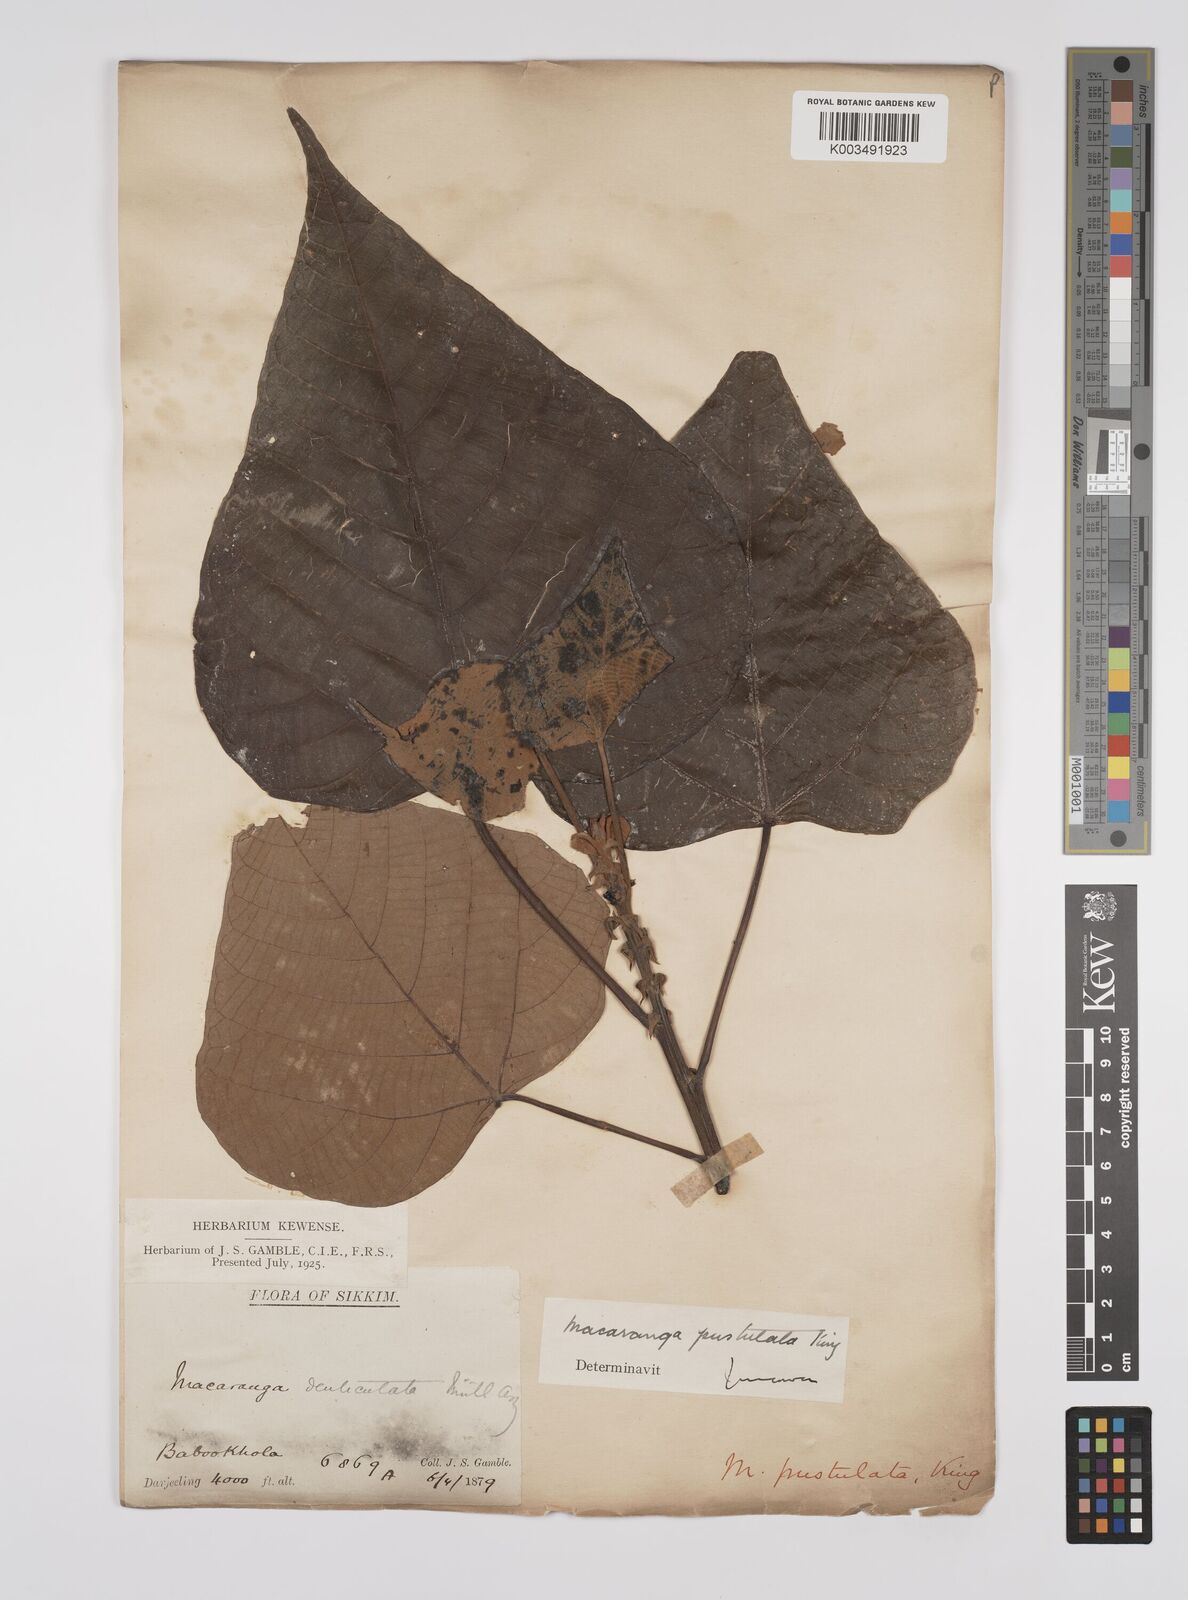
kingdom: Plantae
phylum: Tracheophyta
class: Magnoliopsida
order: Malpighiales
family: Euphorbiaceae
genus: Macaranga
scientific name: Macaranga denticulata
